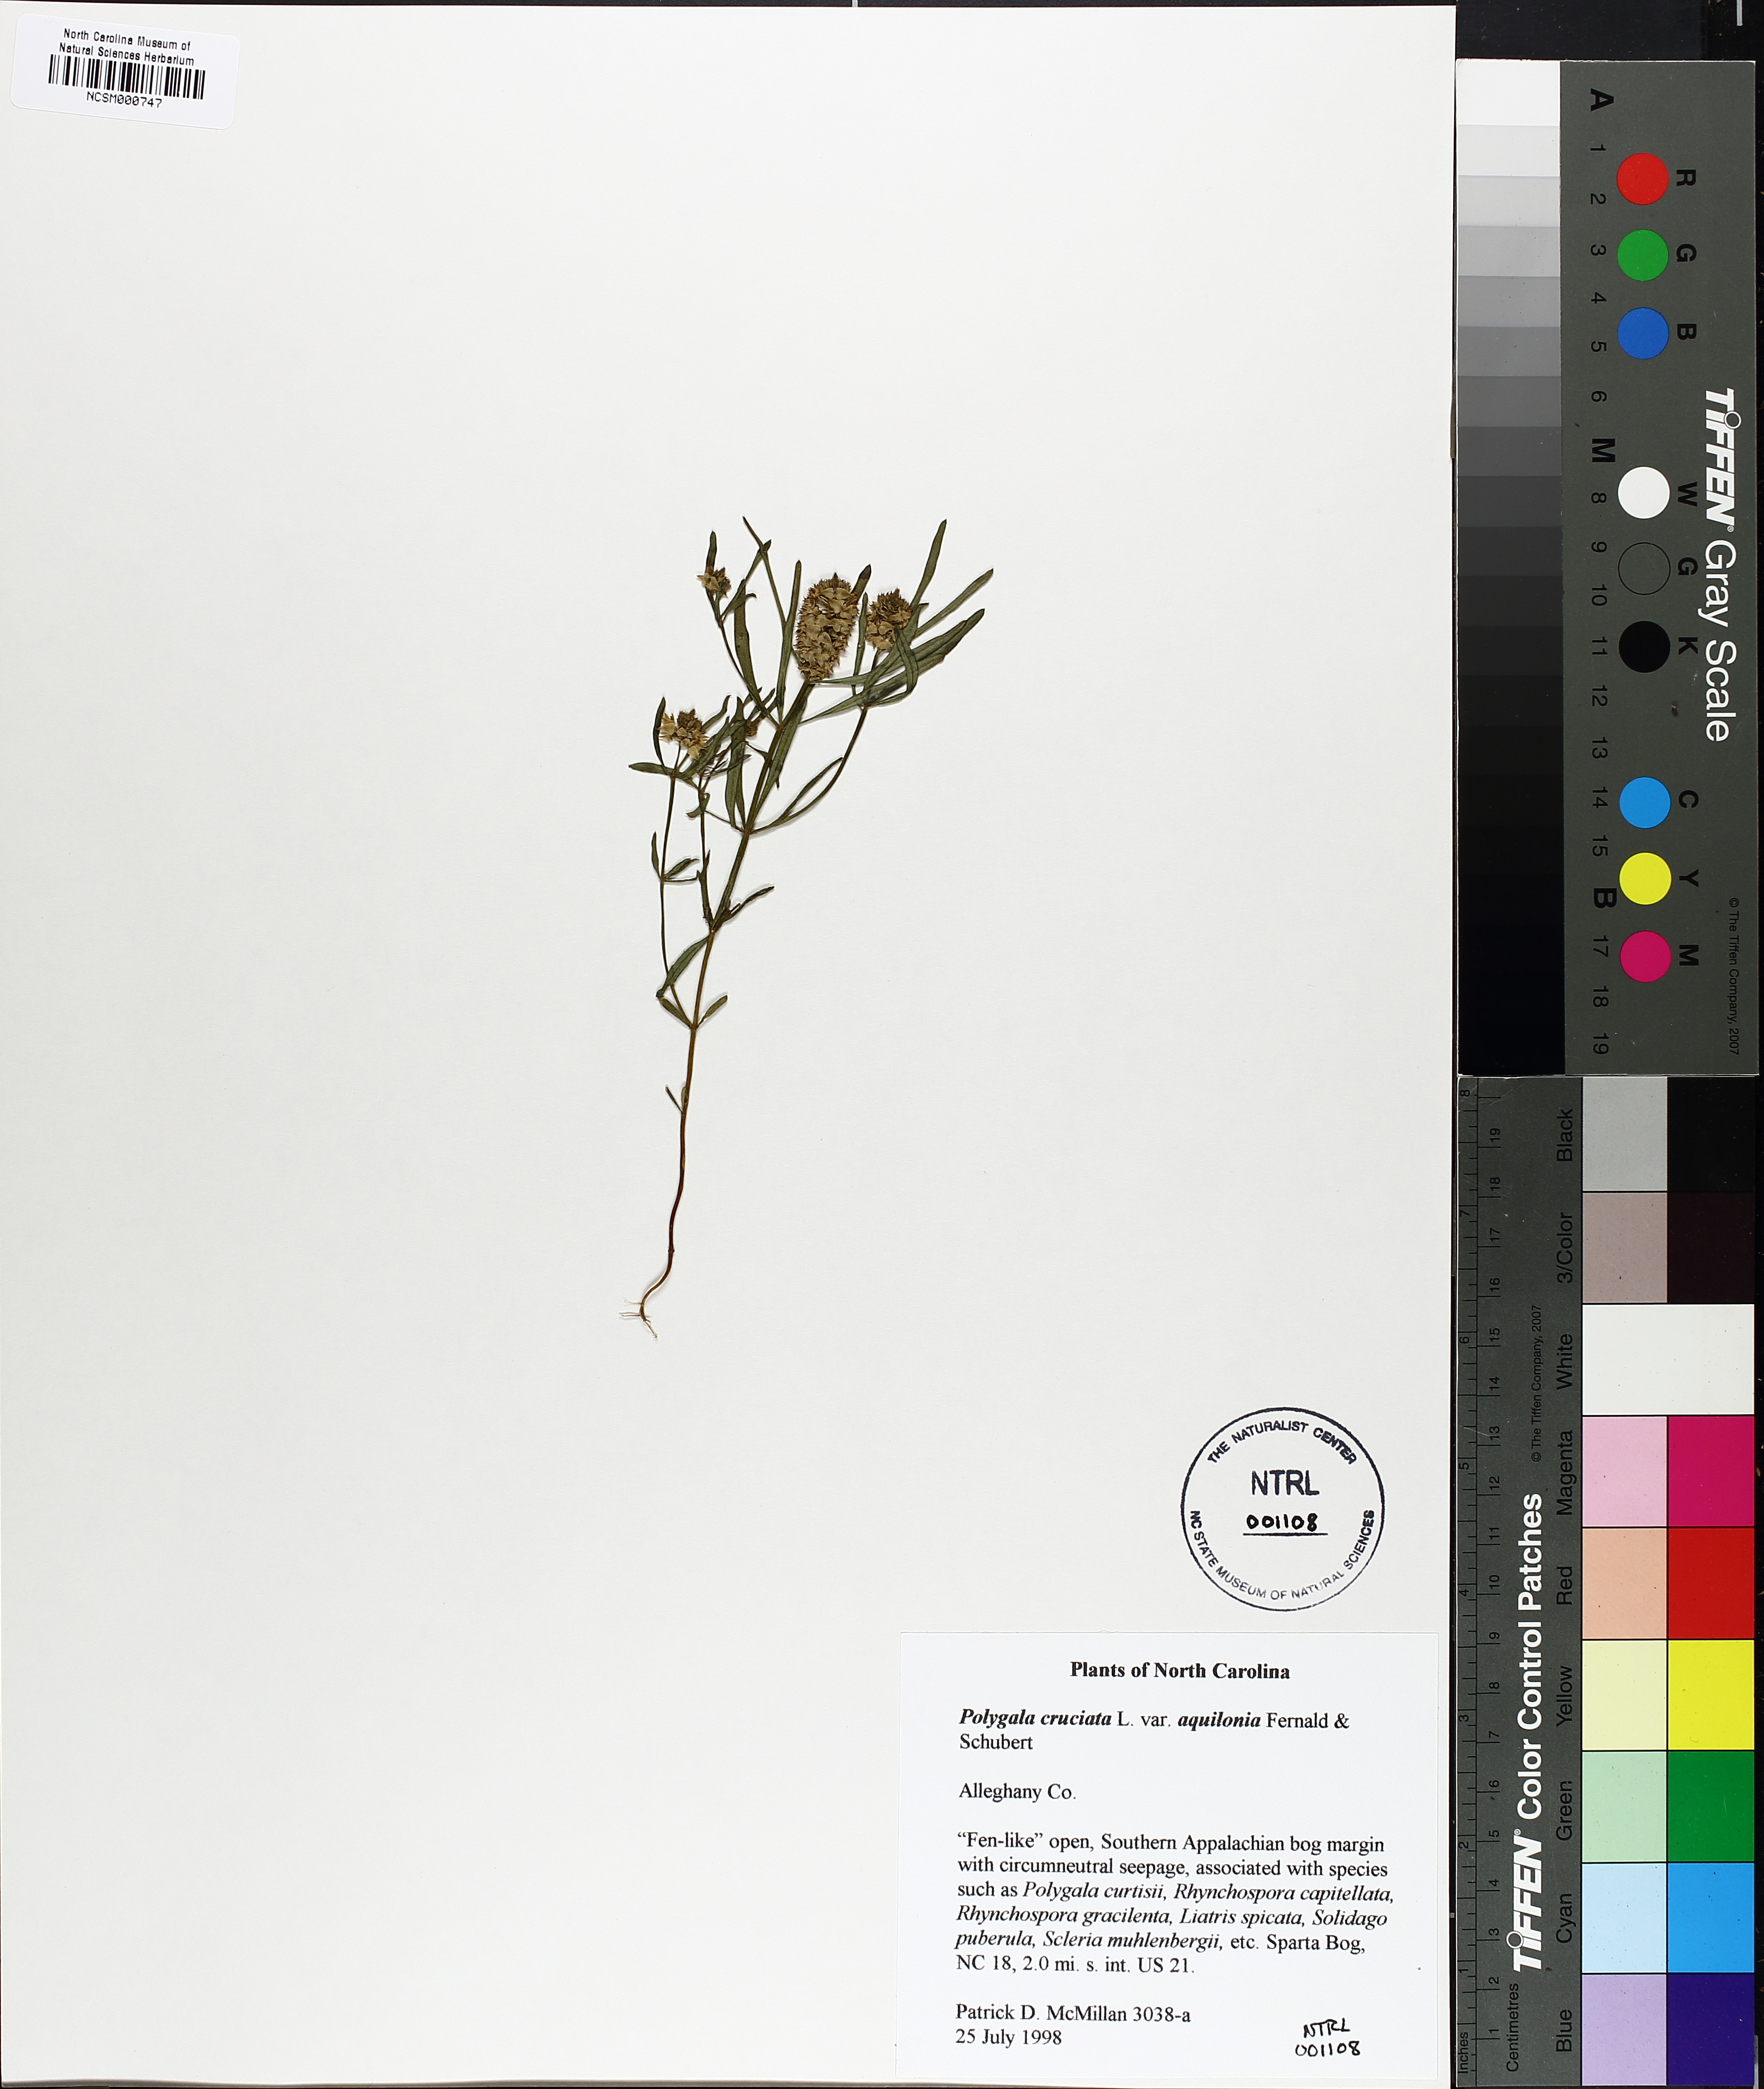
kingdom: Plantae
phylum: Tracheophyta
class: Magnoliopsida
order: Fabales
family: Polygalaceae
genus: Polygala
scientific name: Polygala cruciata
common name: Drumheads
